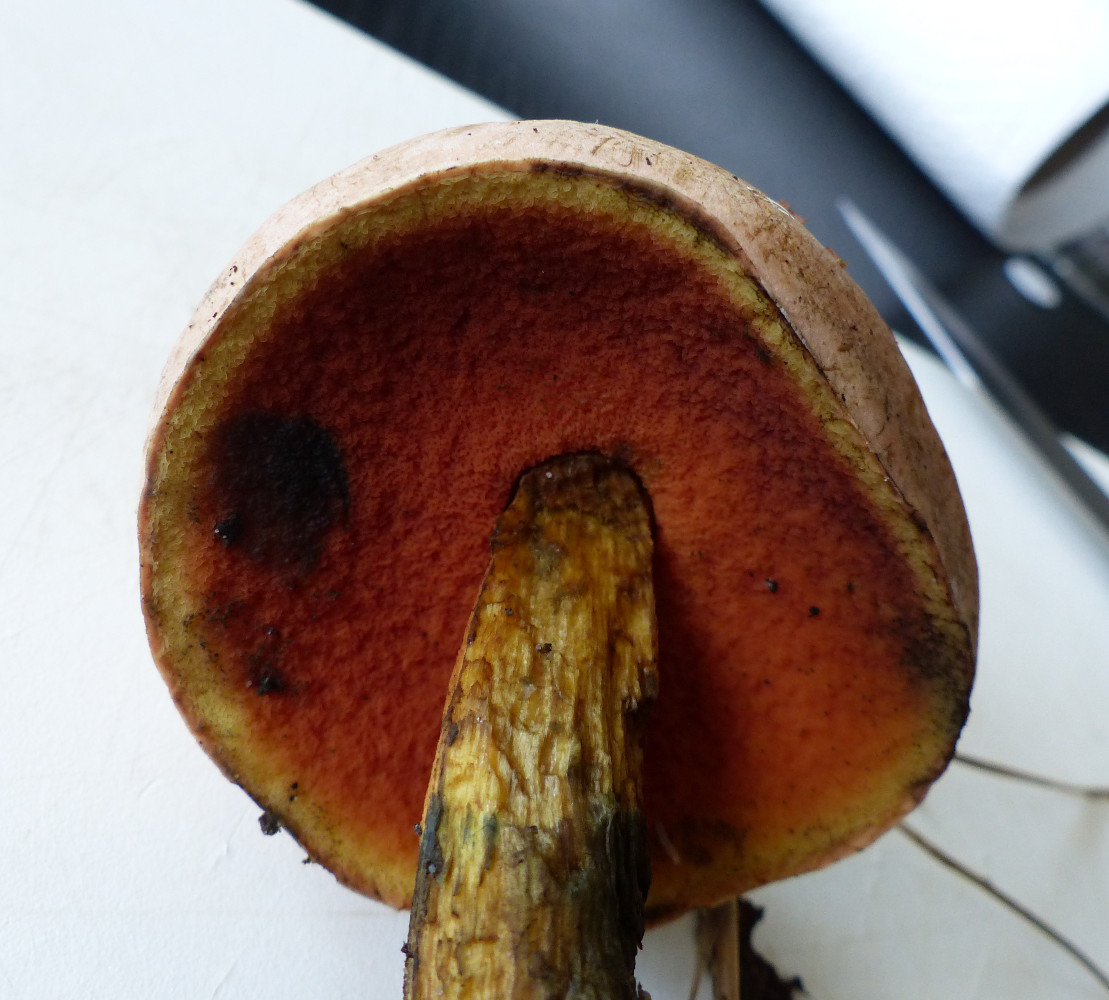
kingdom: Fungi
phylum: Basidiomycota
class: Agaricomycetes
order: Boletales
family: Boletaceae
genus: Suillellus
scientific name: Suillellus luridus
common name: netstokket indigorørhat
